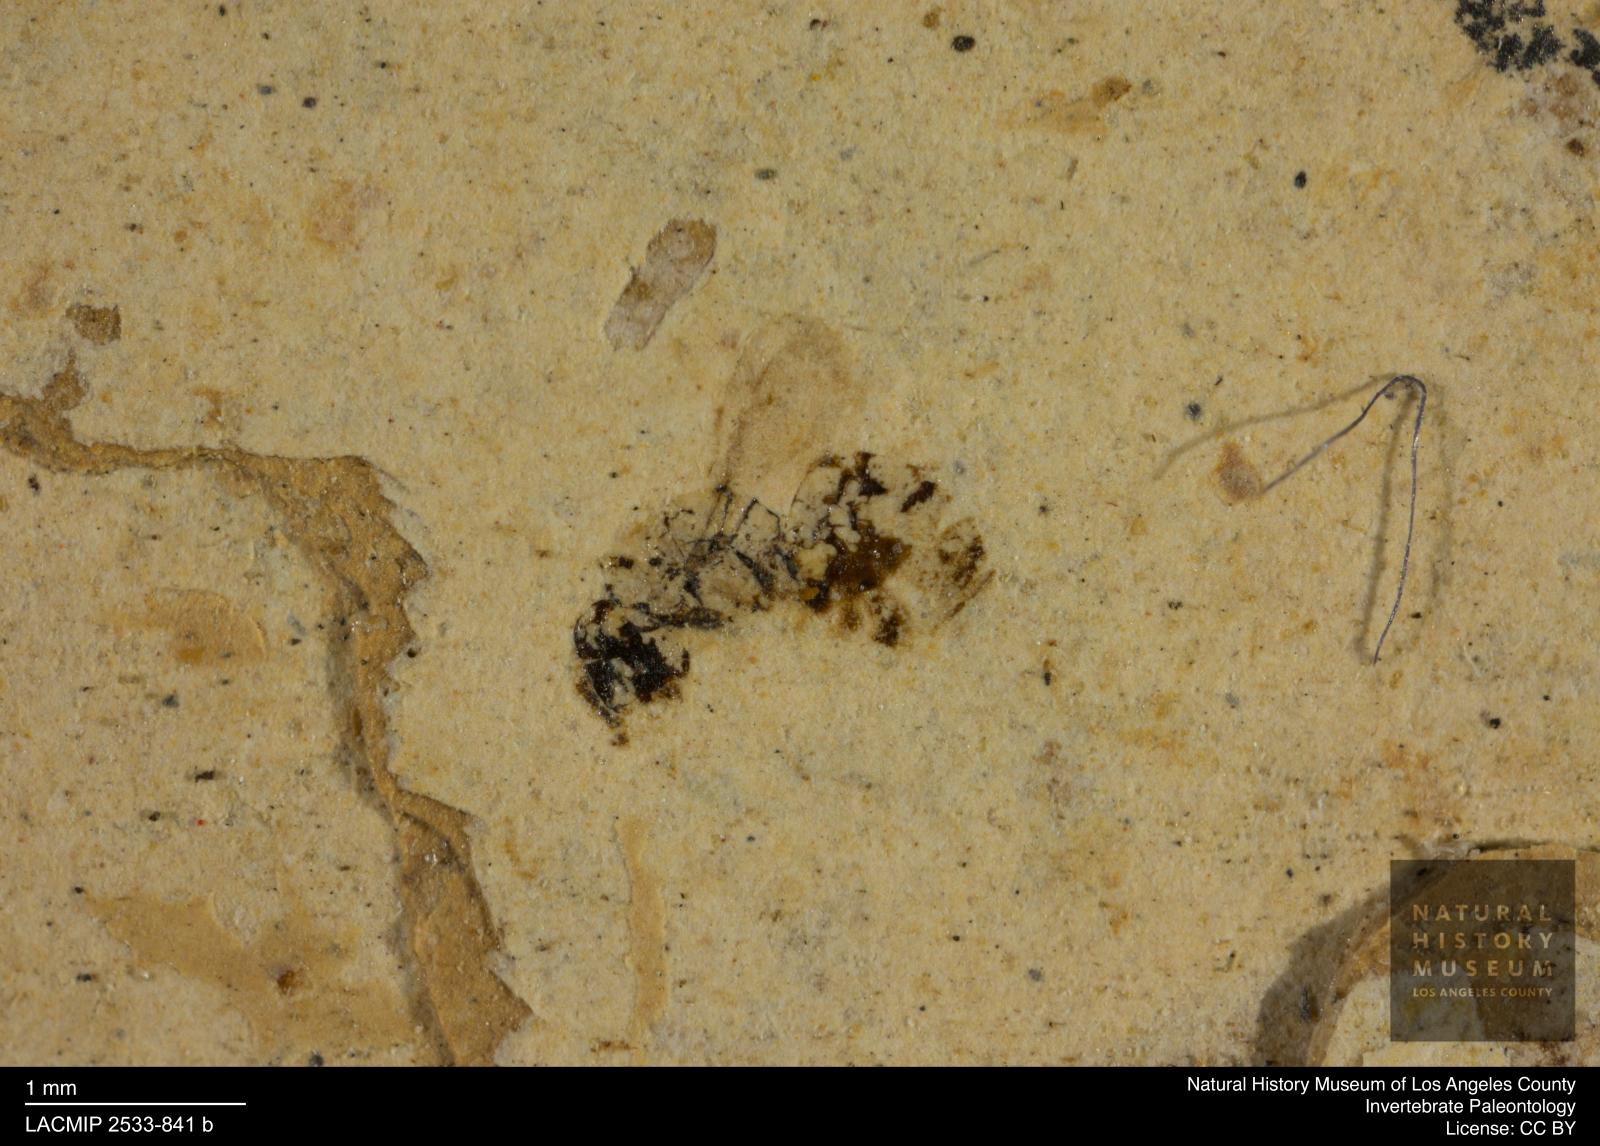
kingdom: Animalia
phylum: Arthropoda
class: Insecta
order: Hymenoptera
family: Pteromalidae
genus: Pteromalus
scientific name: Pteromalus
